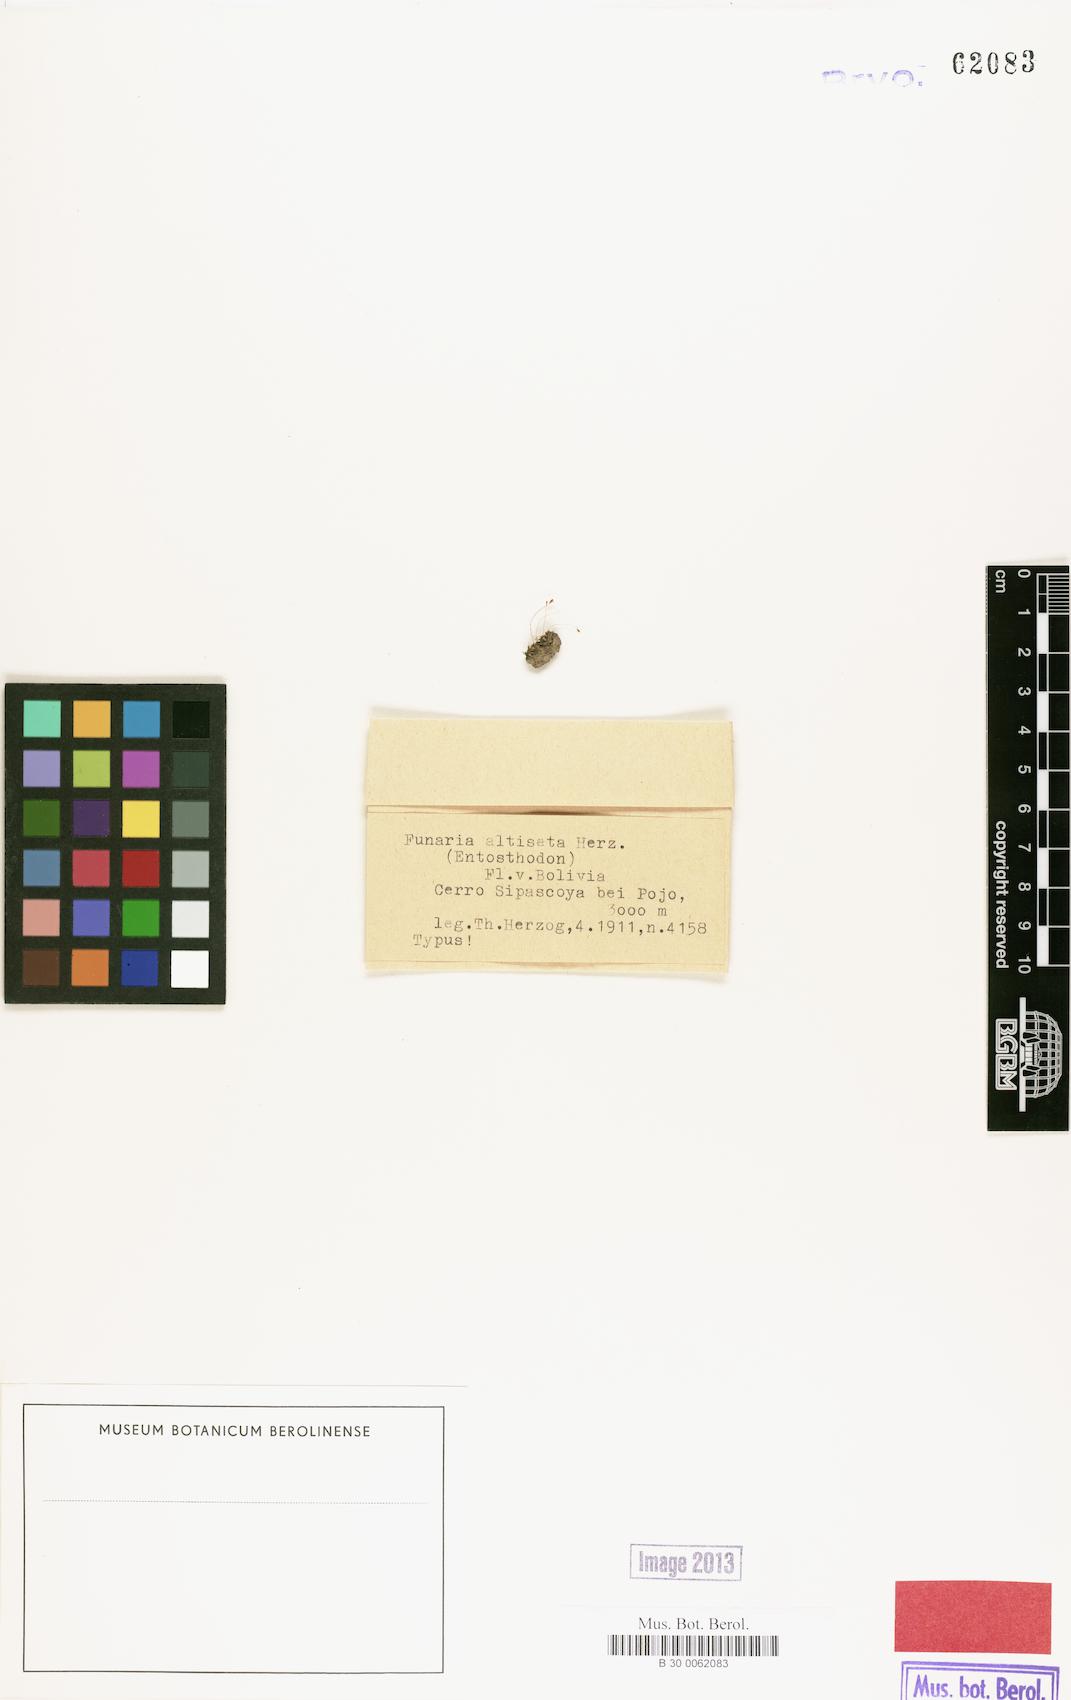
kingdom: Plantae
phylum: Bryophyta
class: Bryopsida
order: Funariales
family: Funariaceae
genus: Entosthodon
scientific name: Entosthodon obtusifolius
